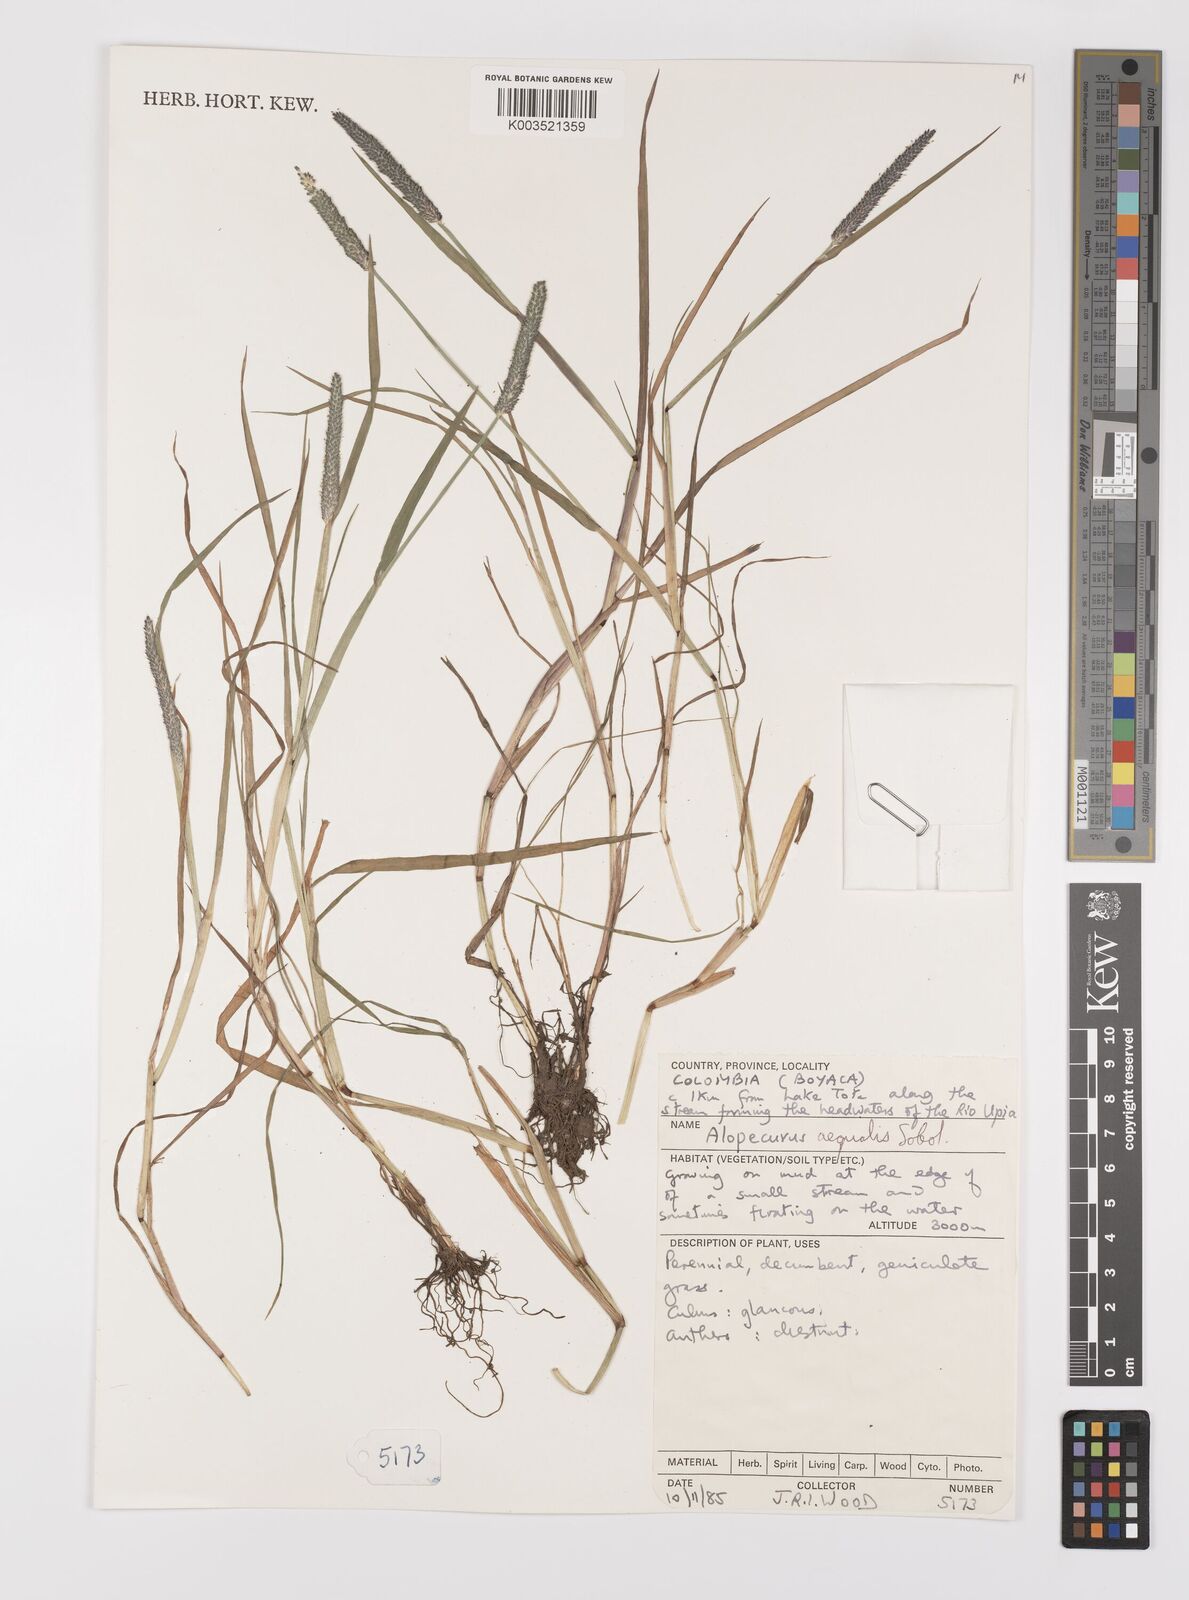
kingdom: Plantae
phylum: Tracheophyta
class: Liliopsida
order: Poales
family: Poaceae
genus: Alopecurus
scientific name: Alopecurus aequalis
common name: Orange foxtail
